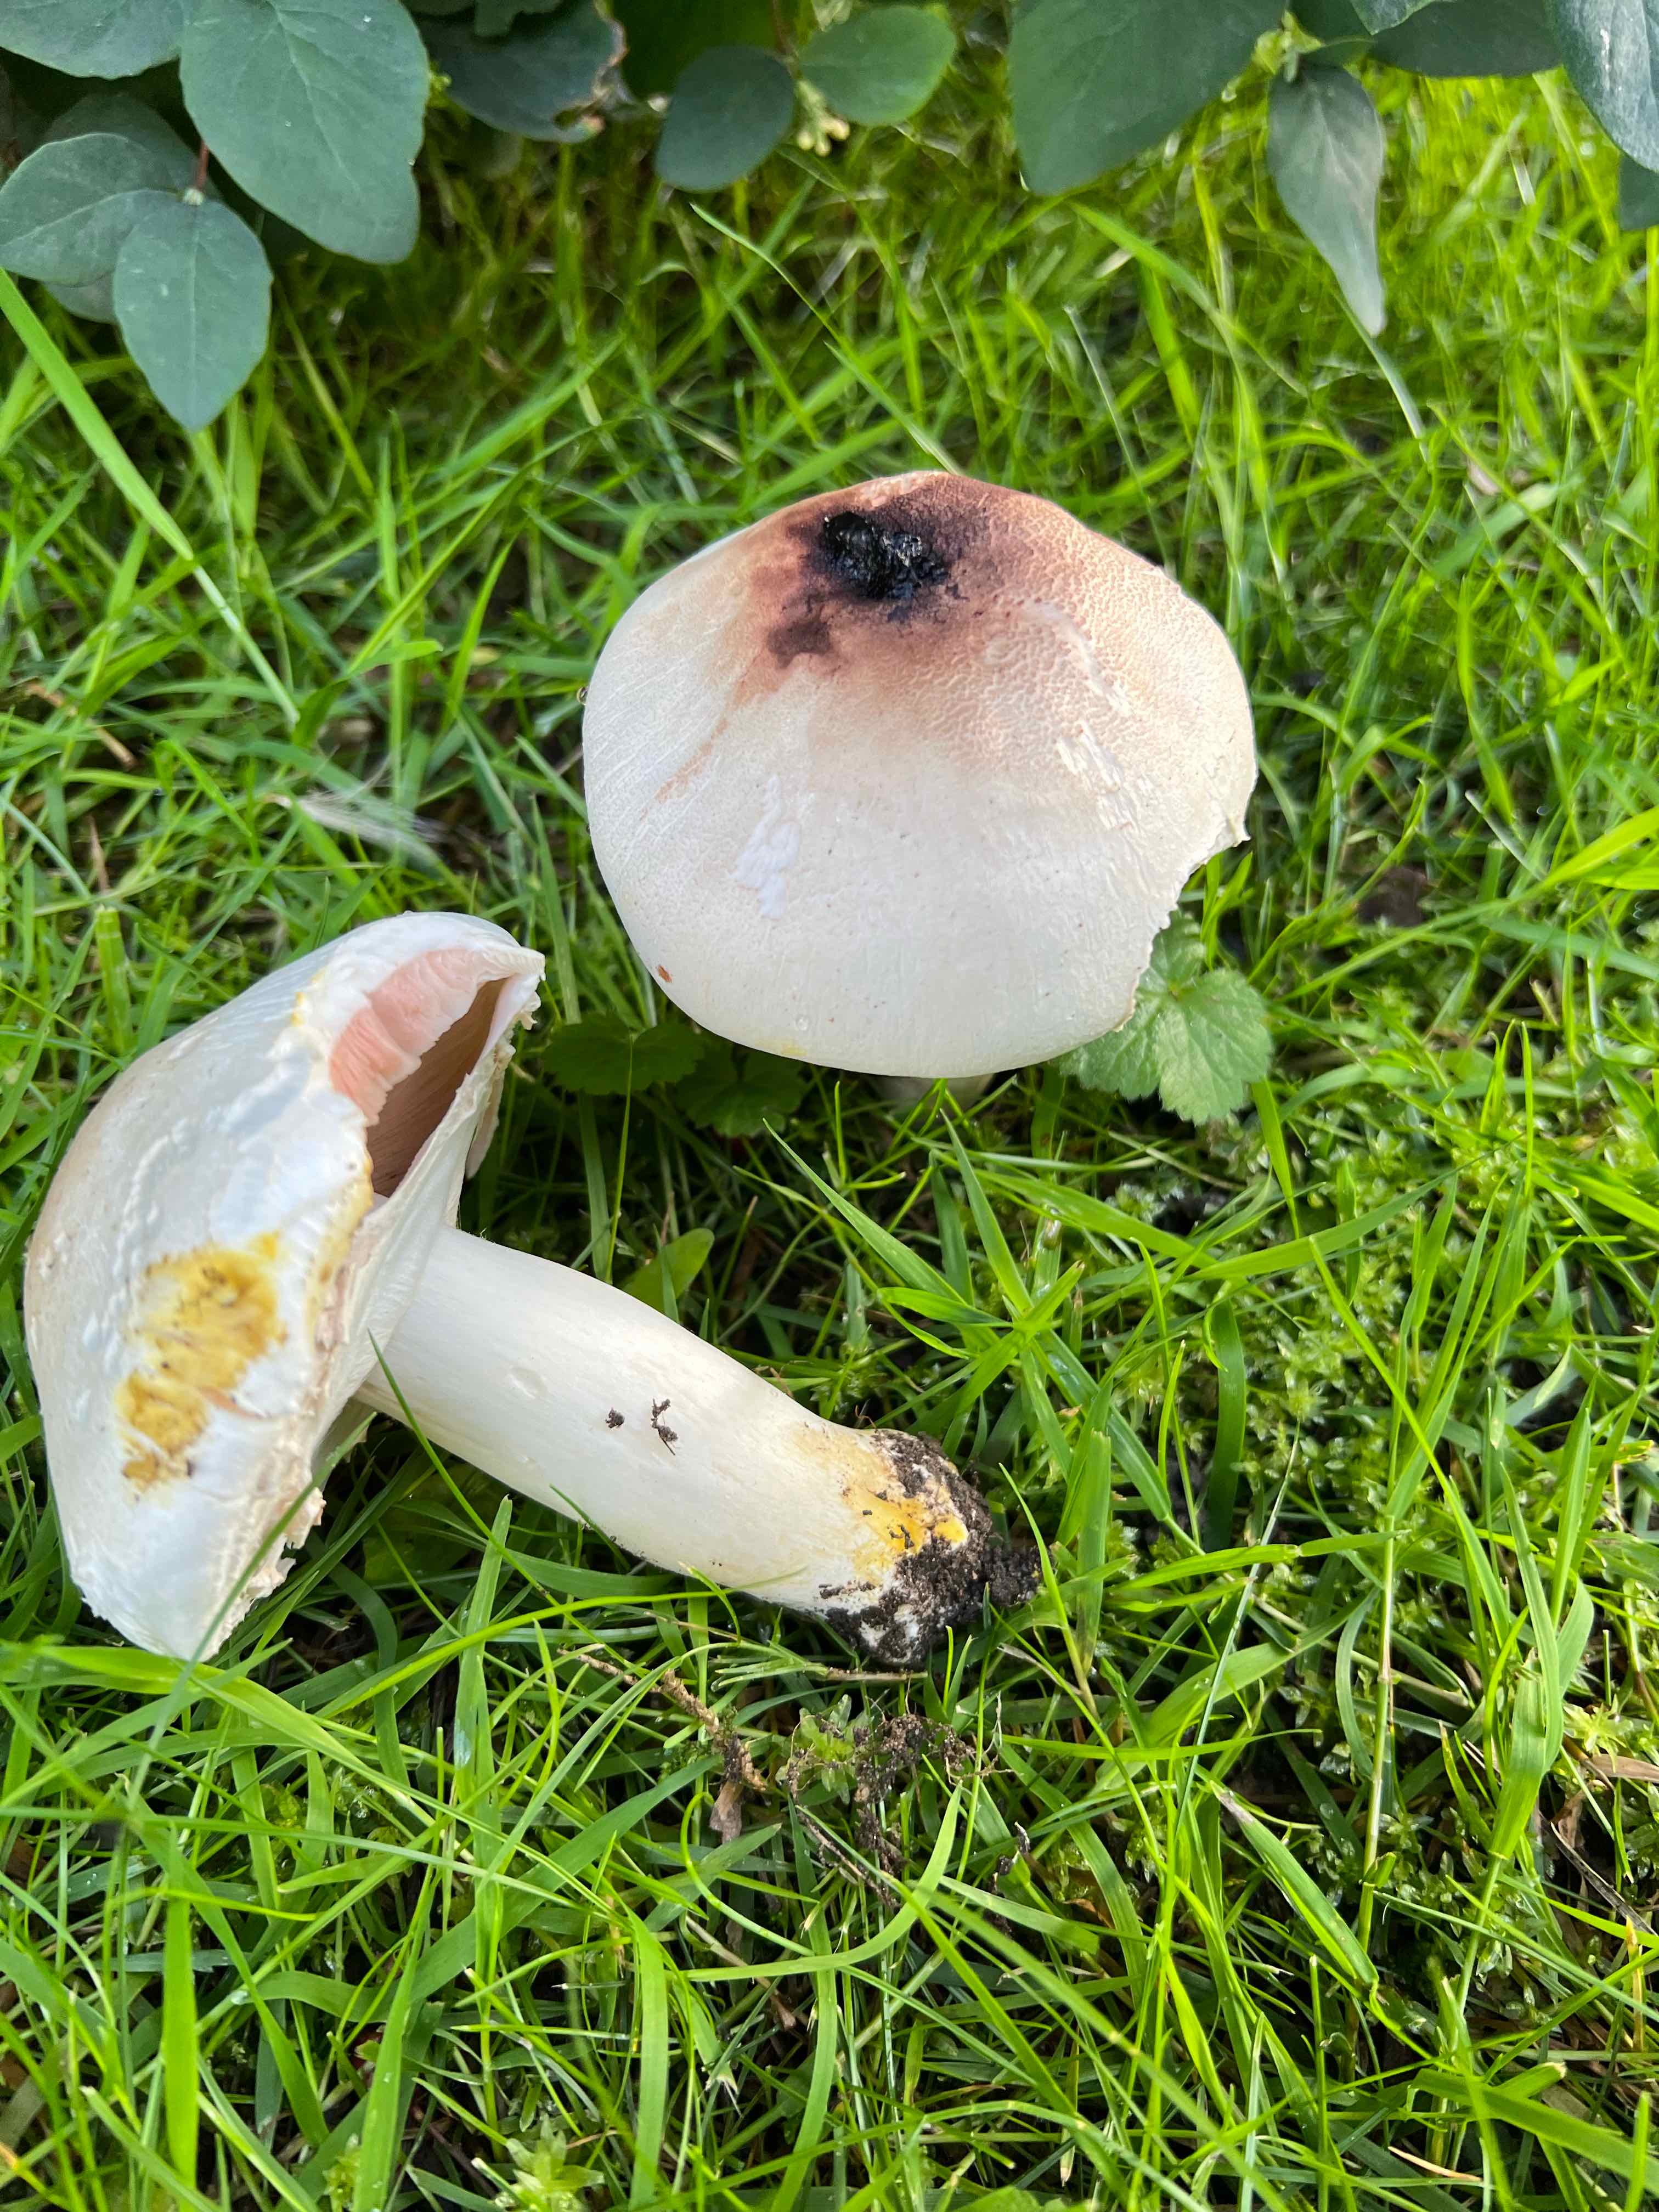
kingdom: Fungi
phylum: Basidiomycota
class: Agaricomycetes
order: Agaricales
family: Agaricaceae
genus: Agaricus
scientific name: Agaricus xanthodermus
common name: karbol-champignon
